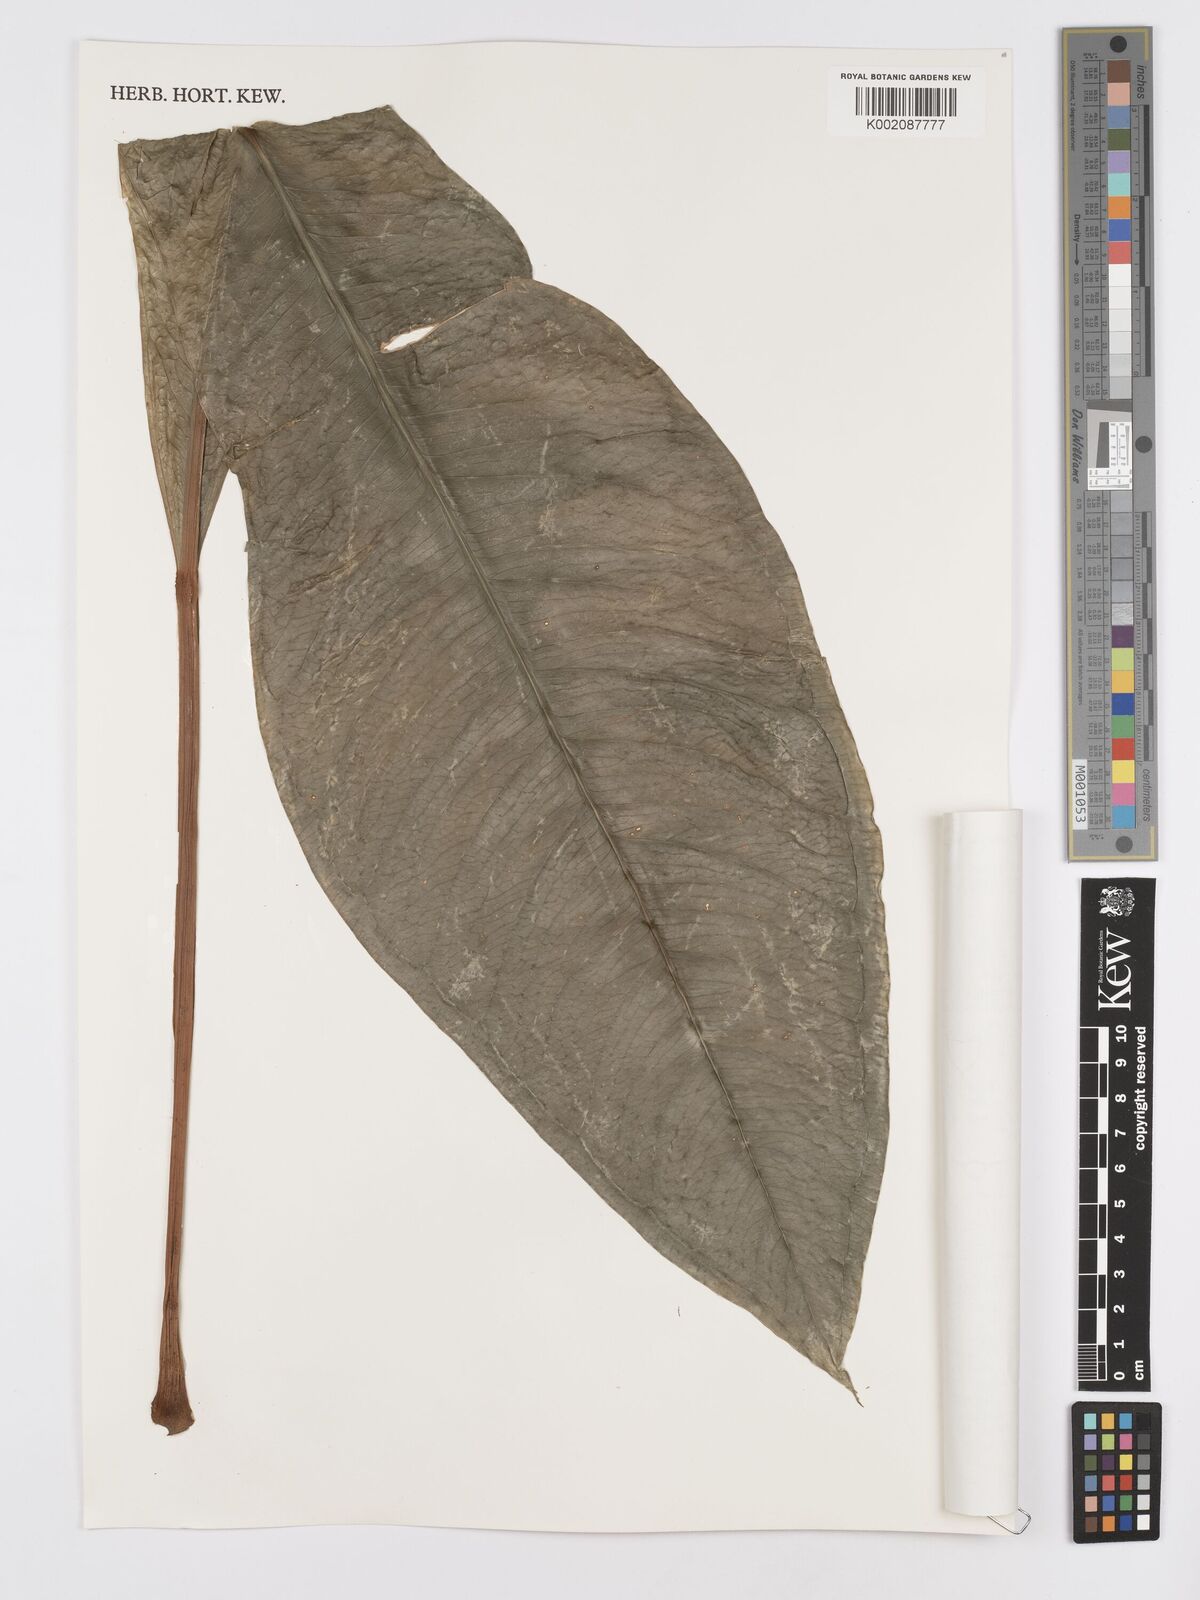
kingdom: Plantae
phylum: Tracheophyta
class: Liliopsida
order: Alismatales
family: Araceae
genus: Anthurium
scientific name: Anthurium parasiticum
